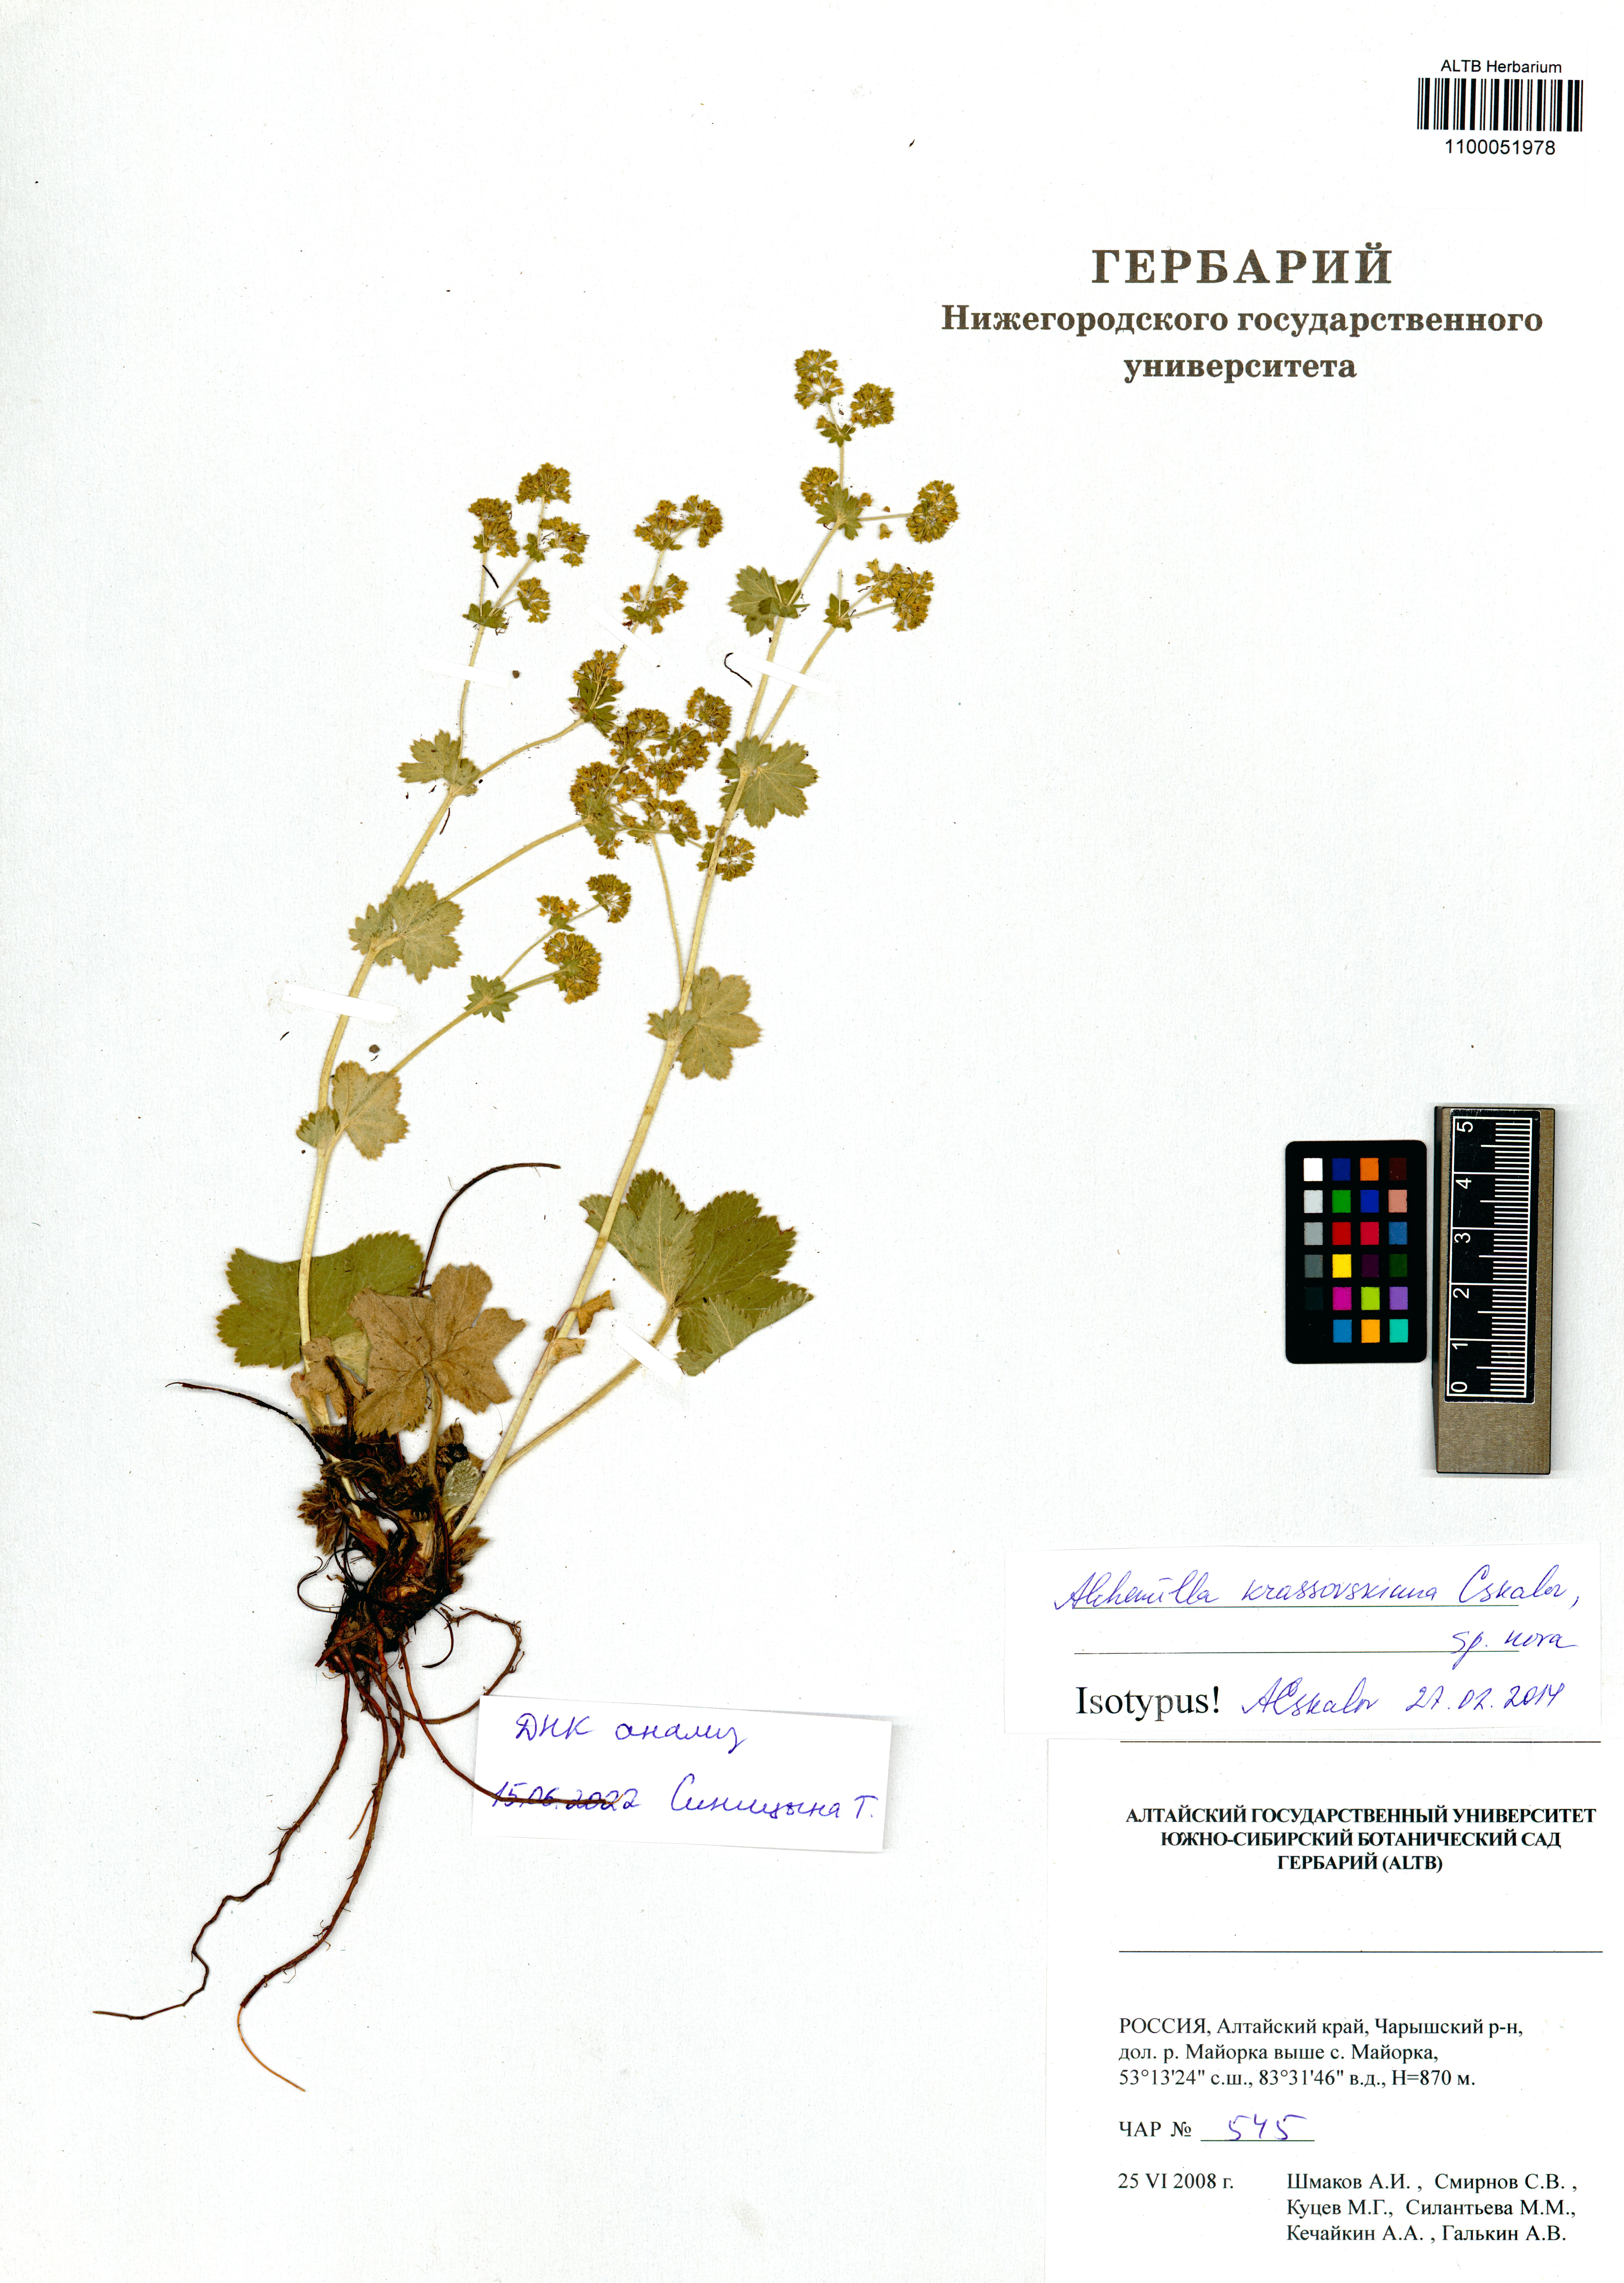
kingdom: Plantae
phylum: Tracheophyta
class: Magnoliopsida
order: Rosales
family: Rosaceae
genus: Alchemilla
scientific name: Alchemilla krassovskiana
